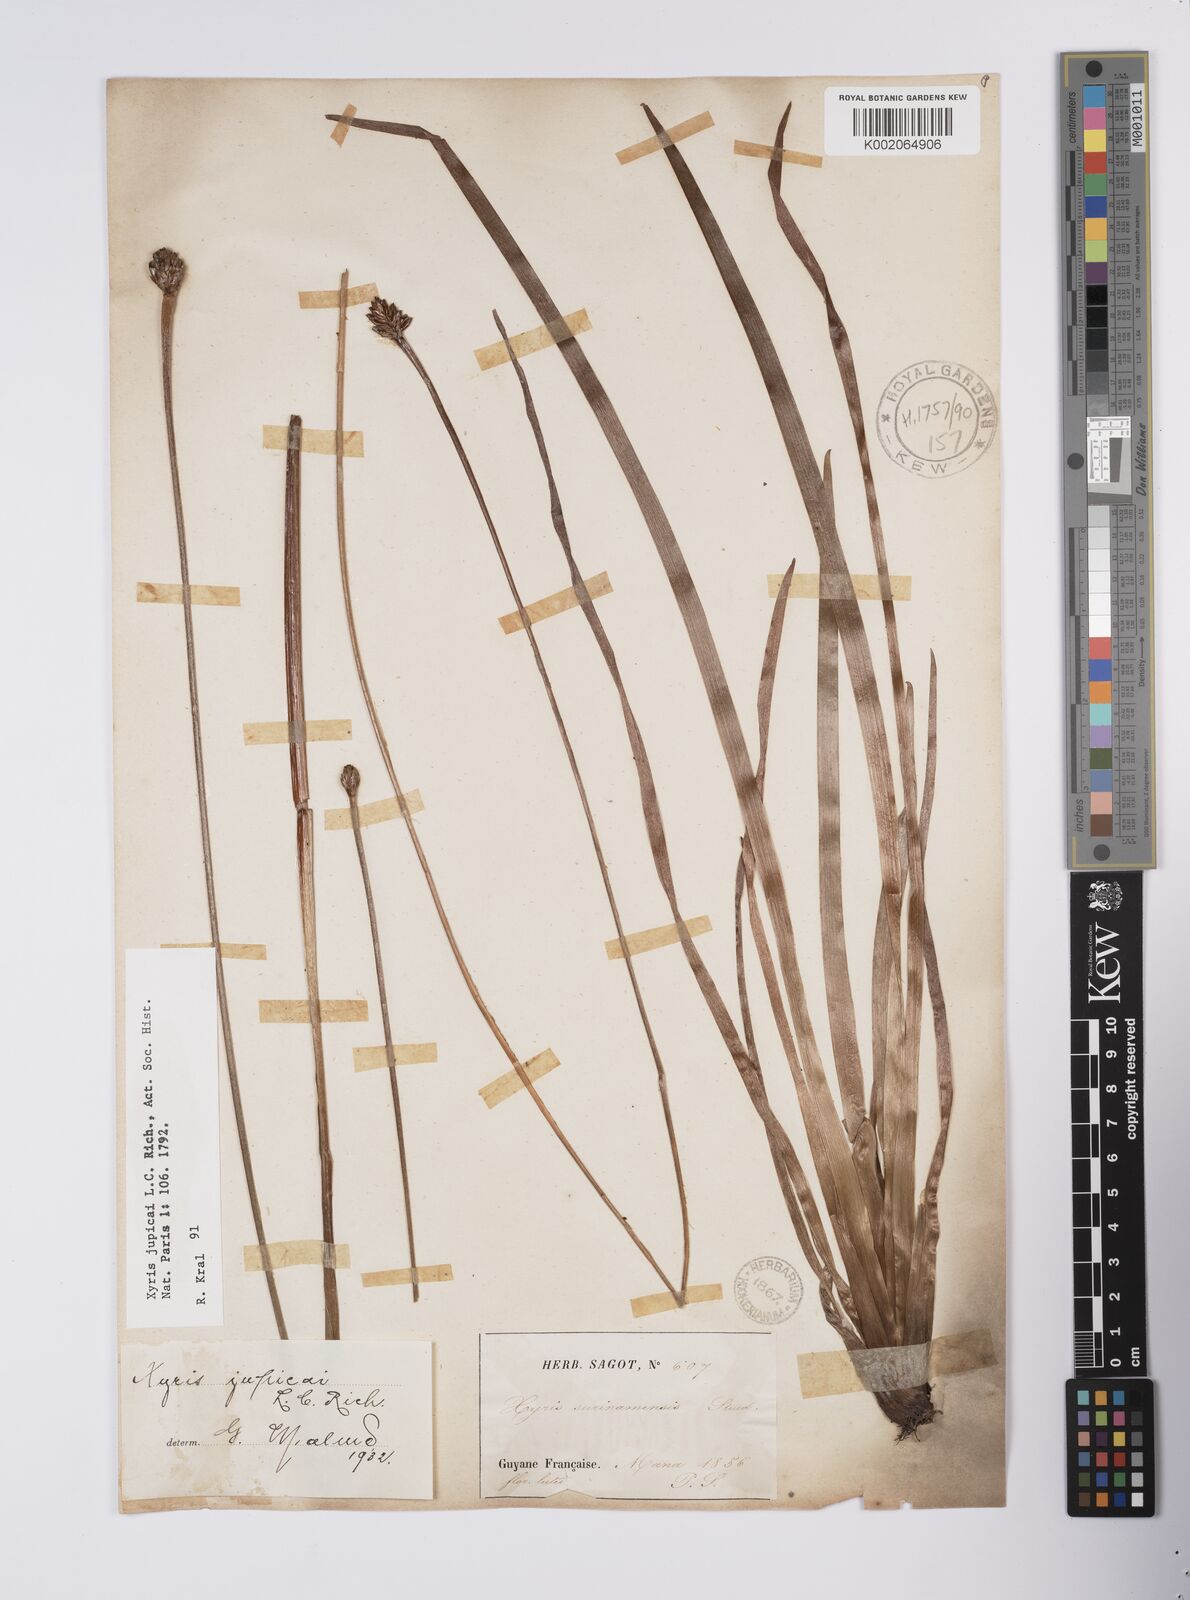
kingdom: Plantae
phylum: Tracheophyta
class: Liliopsida
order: Poales
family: Xyridaceae
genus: Xyris
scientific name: Xyris jupicai
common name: Richard's yelloweyed grass
